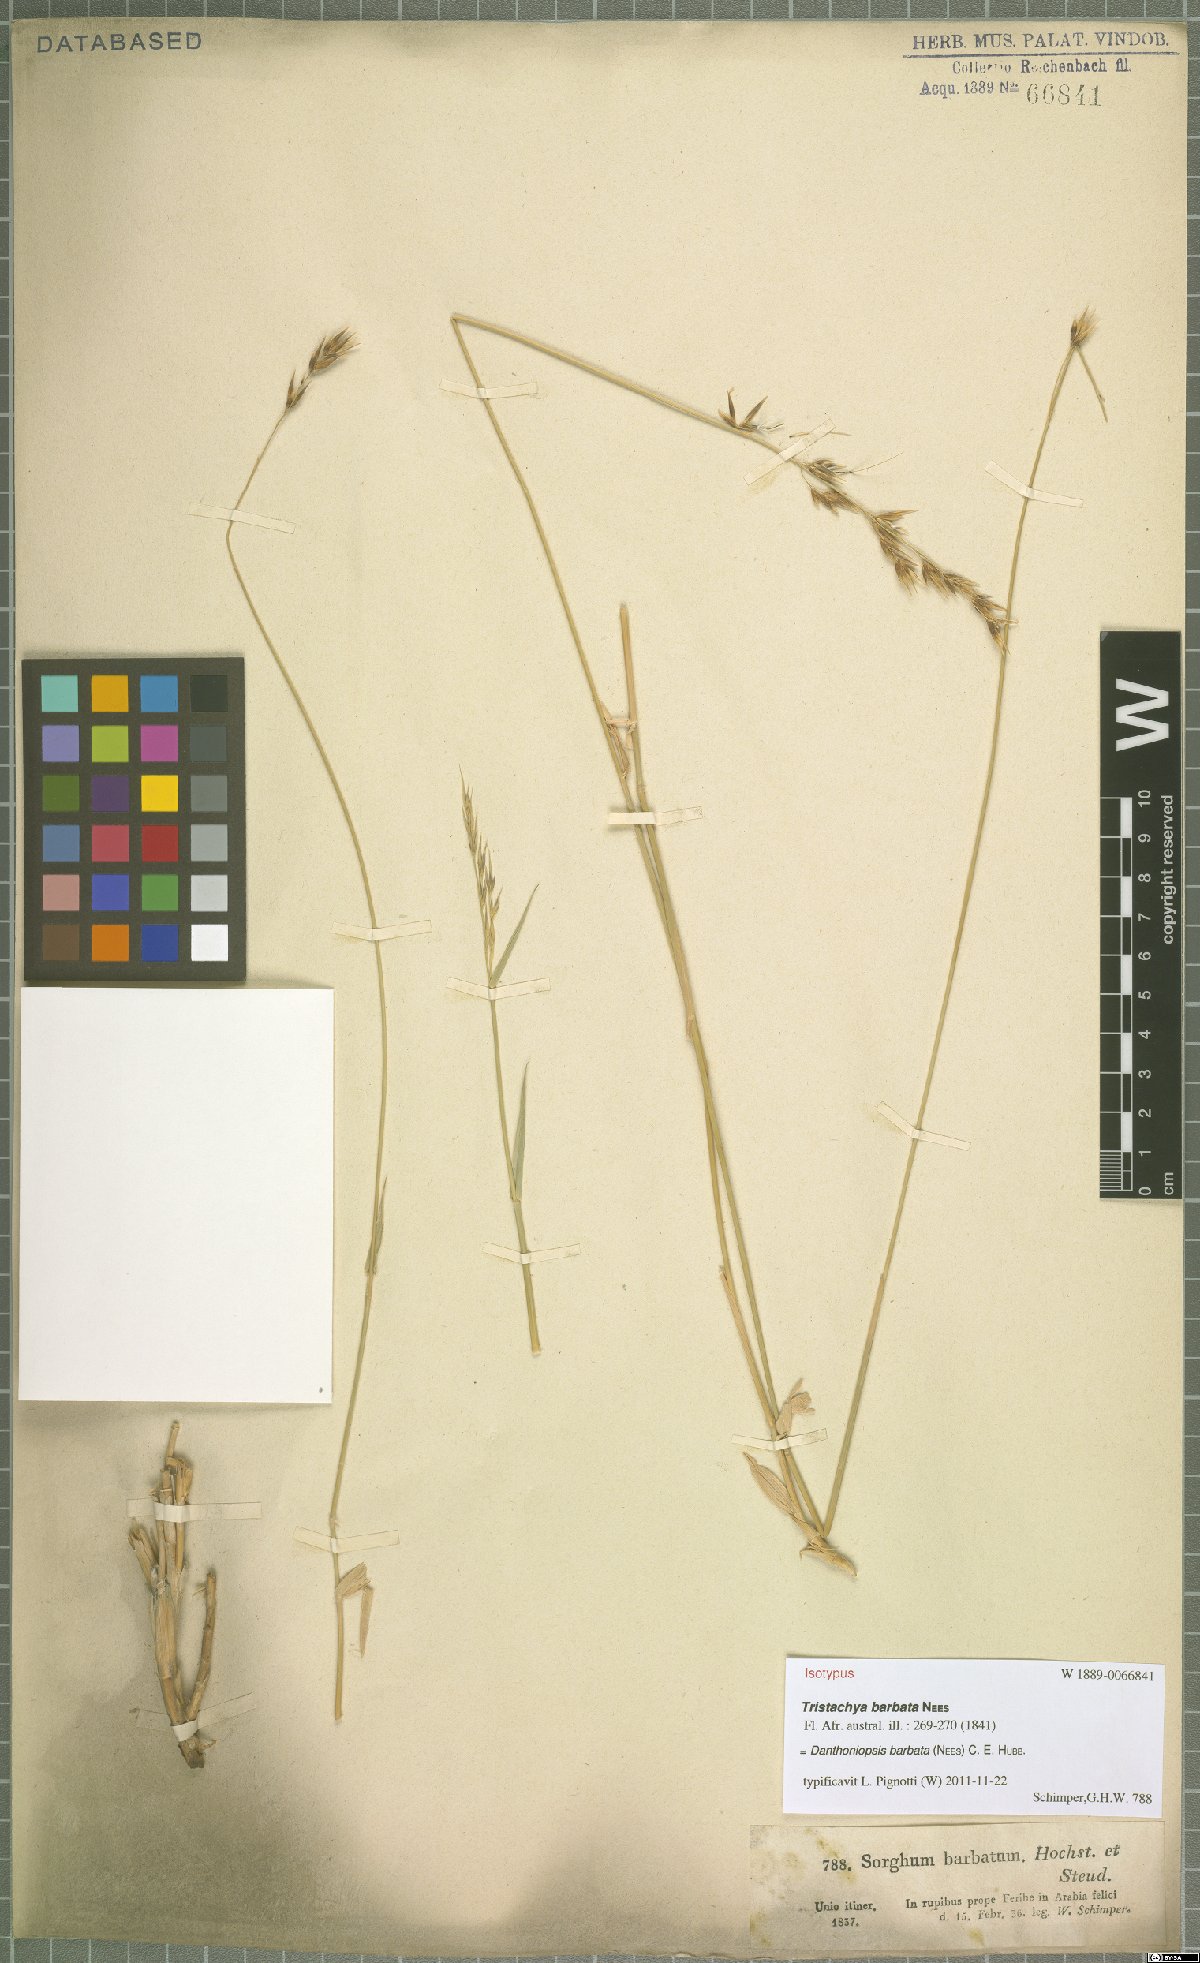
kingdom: Plantae
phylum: Tracheophyta
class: Liliopsida
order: Poales
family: Poaceae
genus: Danthoniopsis
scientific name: Danthoniopsis barbata
